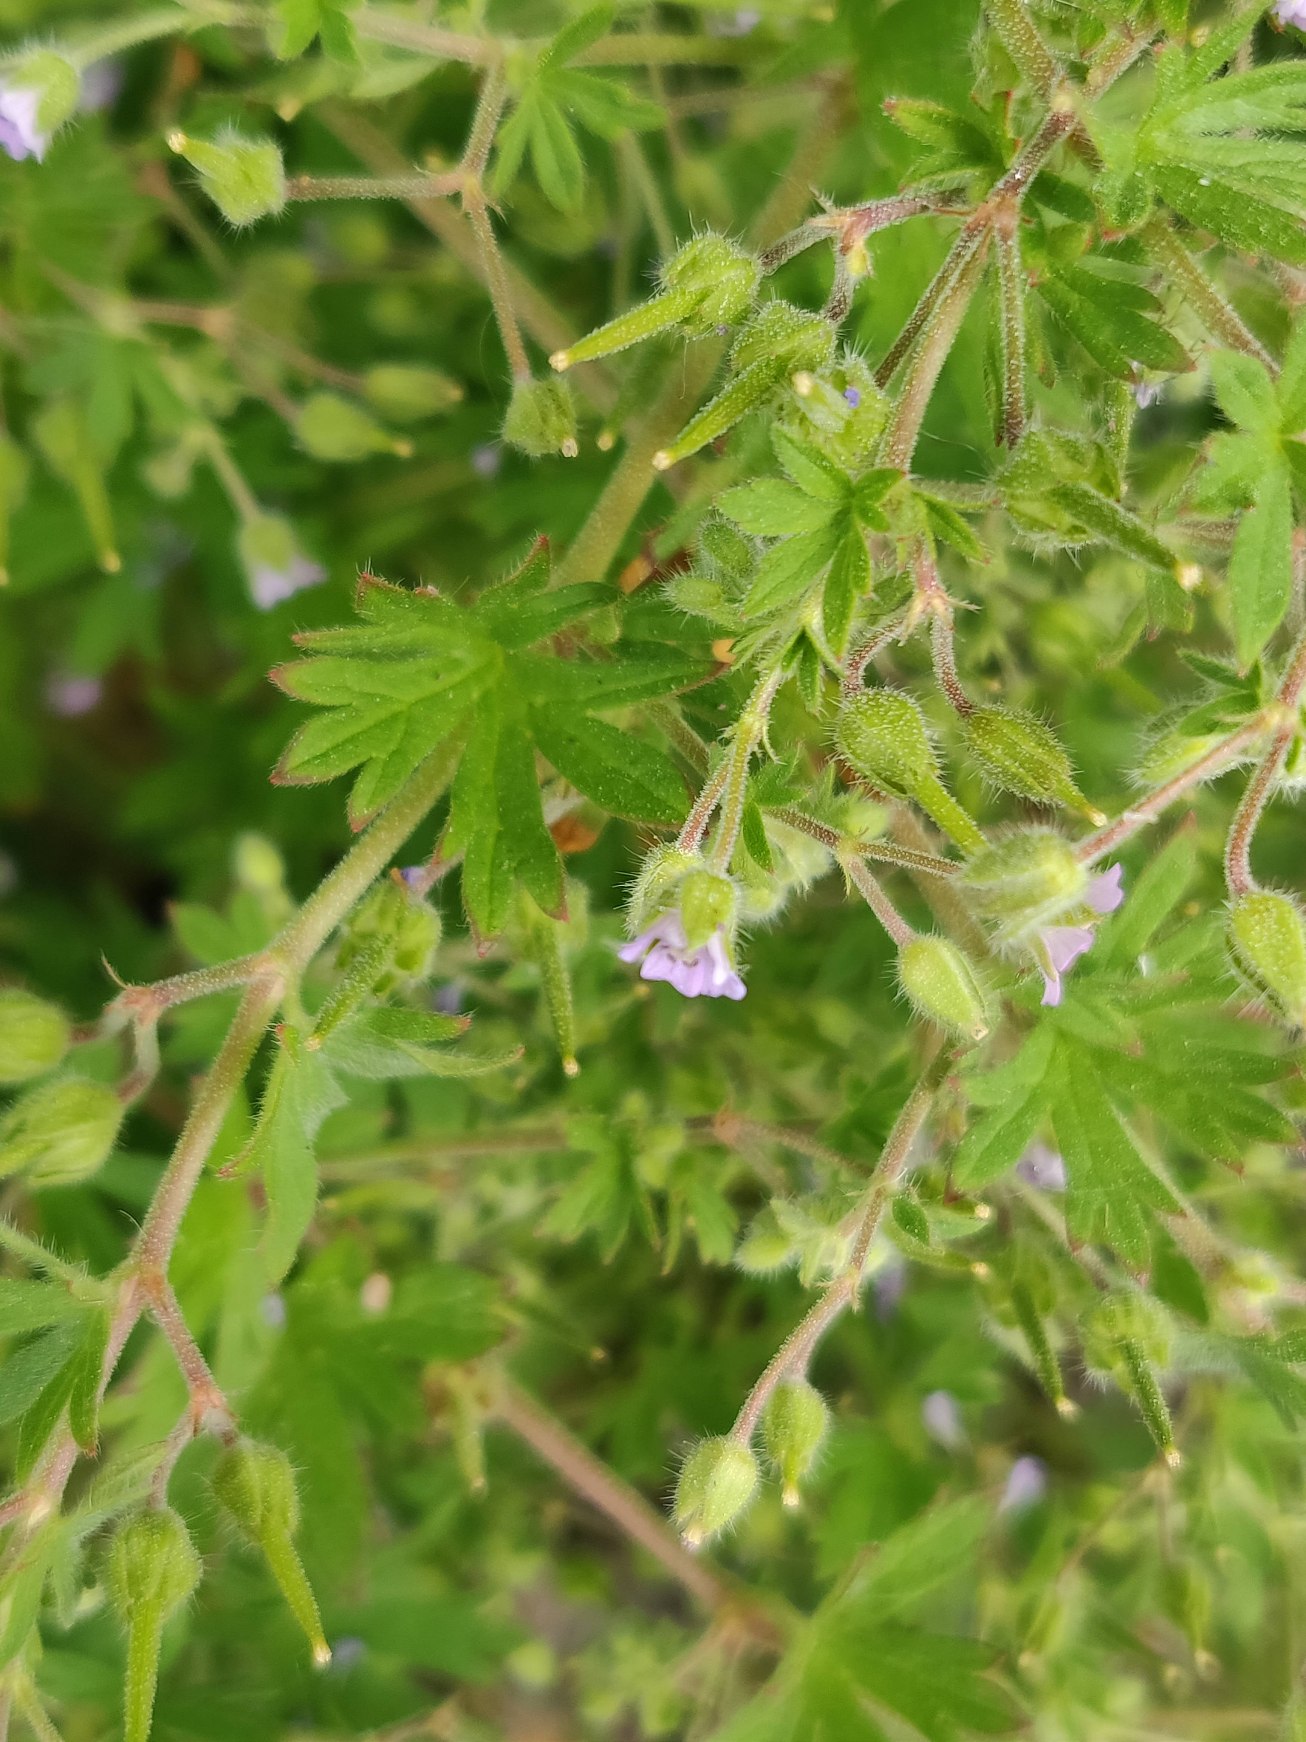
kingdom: Plantae
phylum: Tracheophyta
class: Magnoliopsida
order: Geraniales
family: Geraniaceae
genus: Geranium
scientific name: Geranium pusillum
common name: Liden storkenæb
